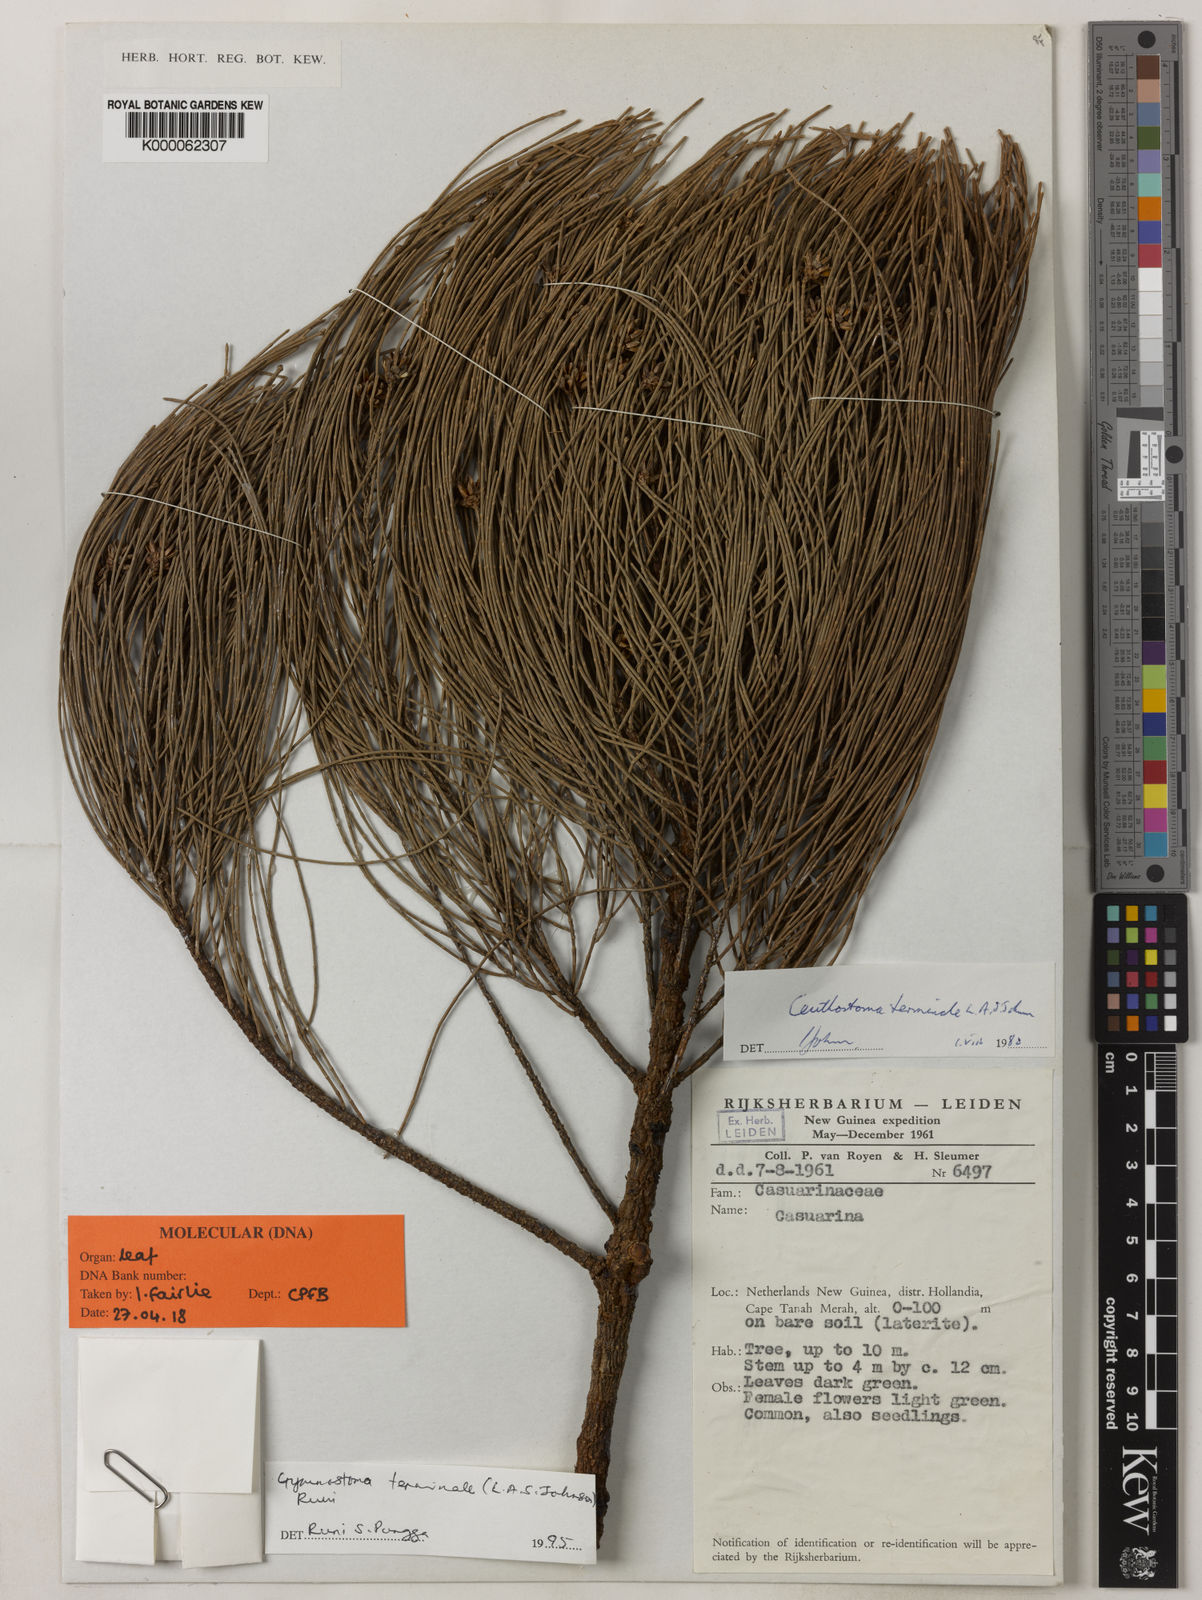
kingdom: Plantae
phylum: Tracheophyta
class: Magnoliopsida
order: Fagales
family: Casuarinaceae
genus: Ceuthostoma
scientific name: Ceuthostoma terminale
